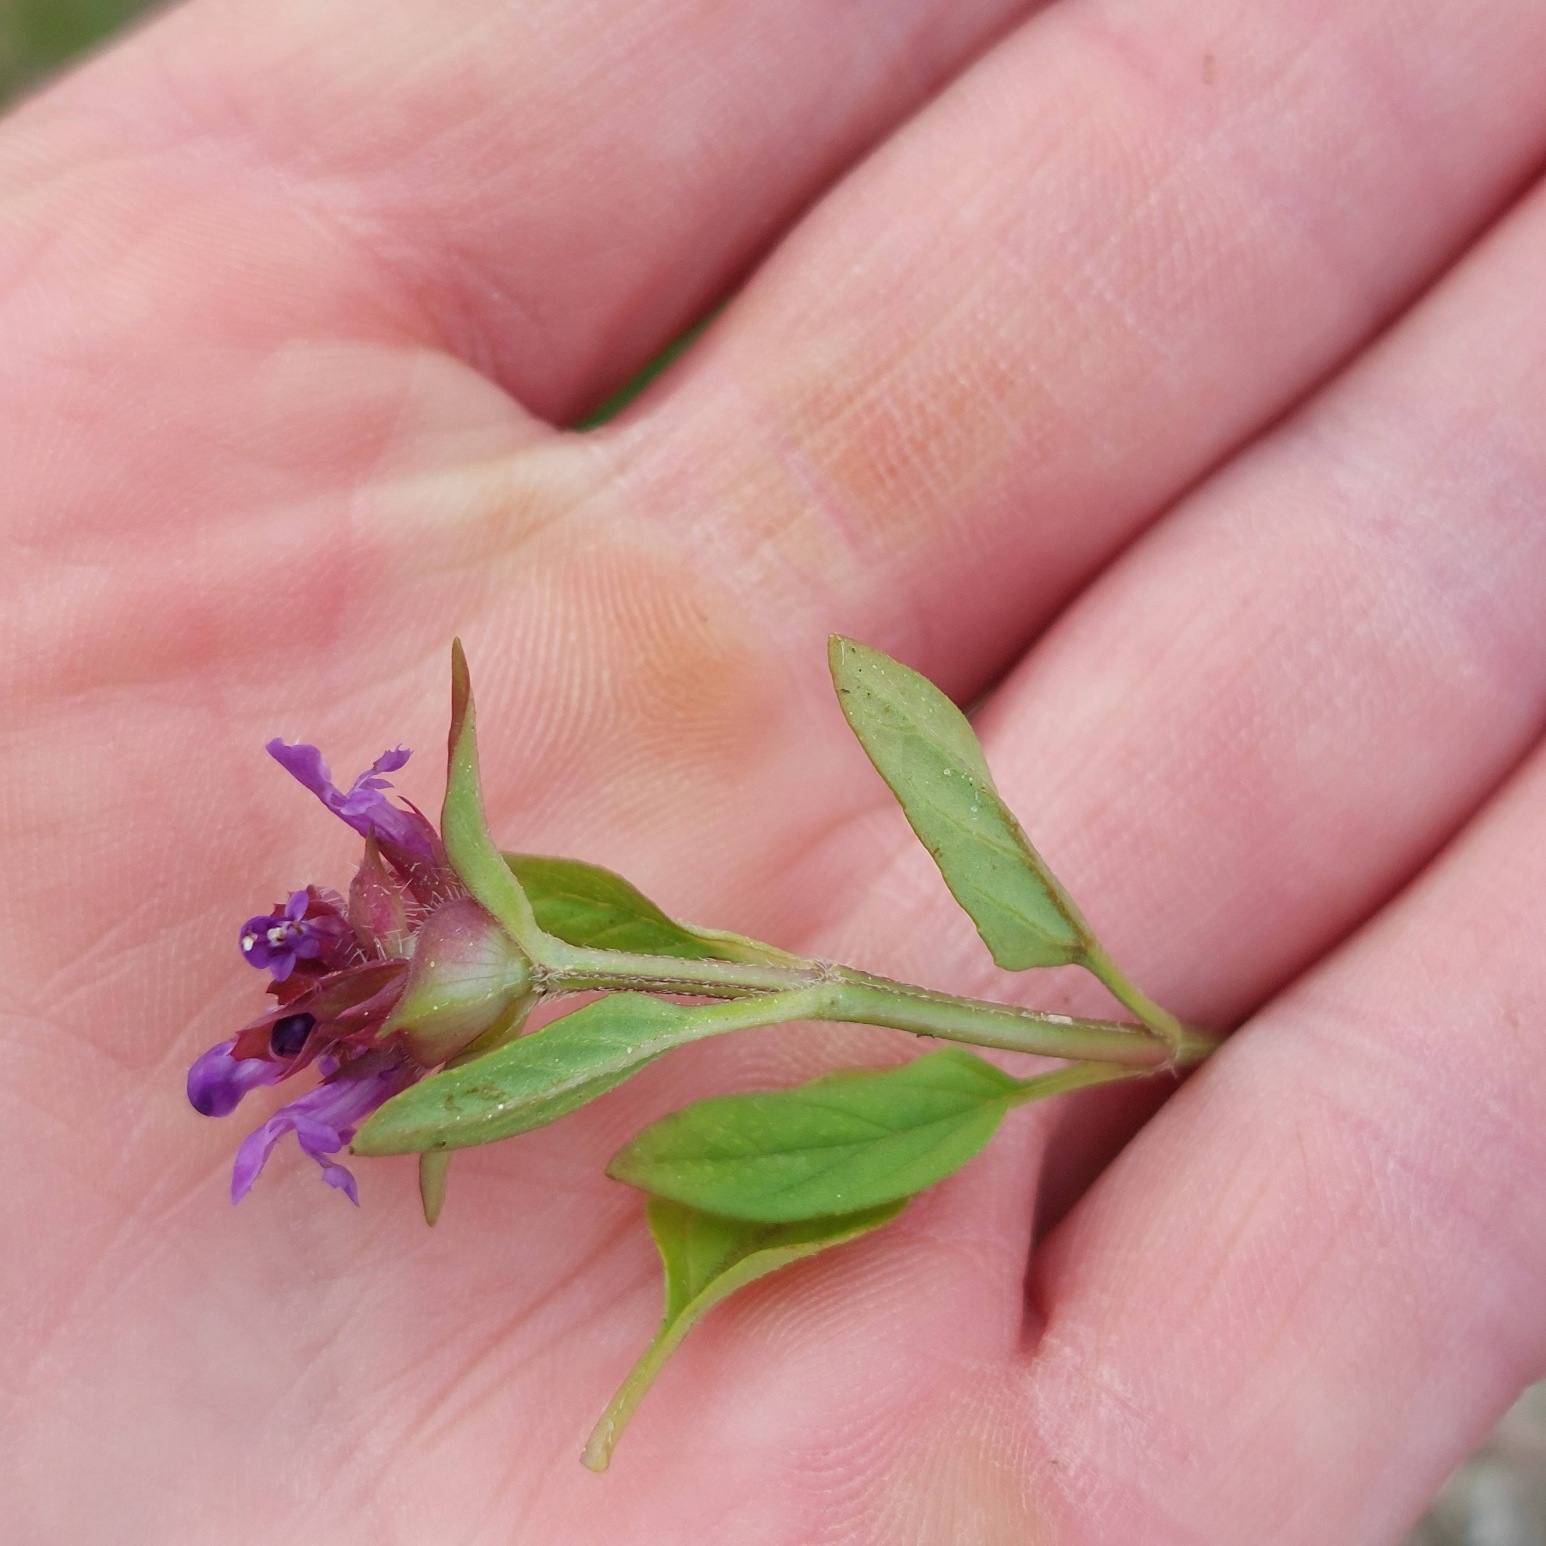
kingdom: Plantae
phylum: Tracheophyta
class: Magnoliopsida
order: Lamiales
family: Lamiaceae
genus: Prunella
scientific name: Prunella vulgaris
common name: Almindelig brunelle
